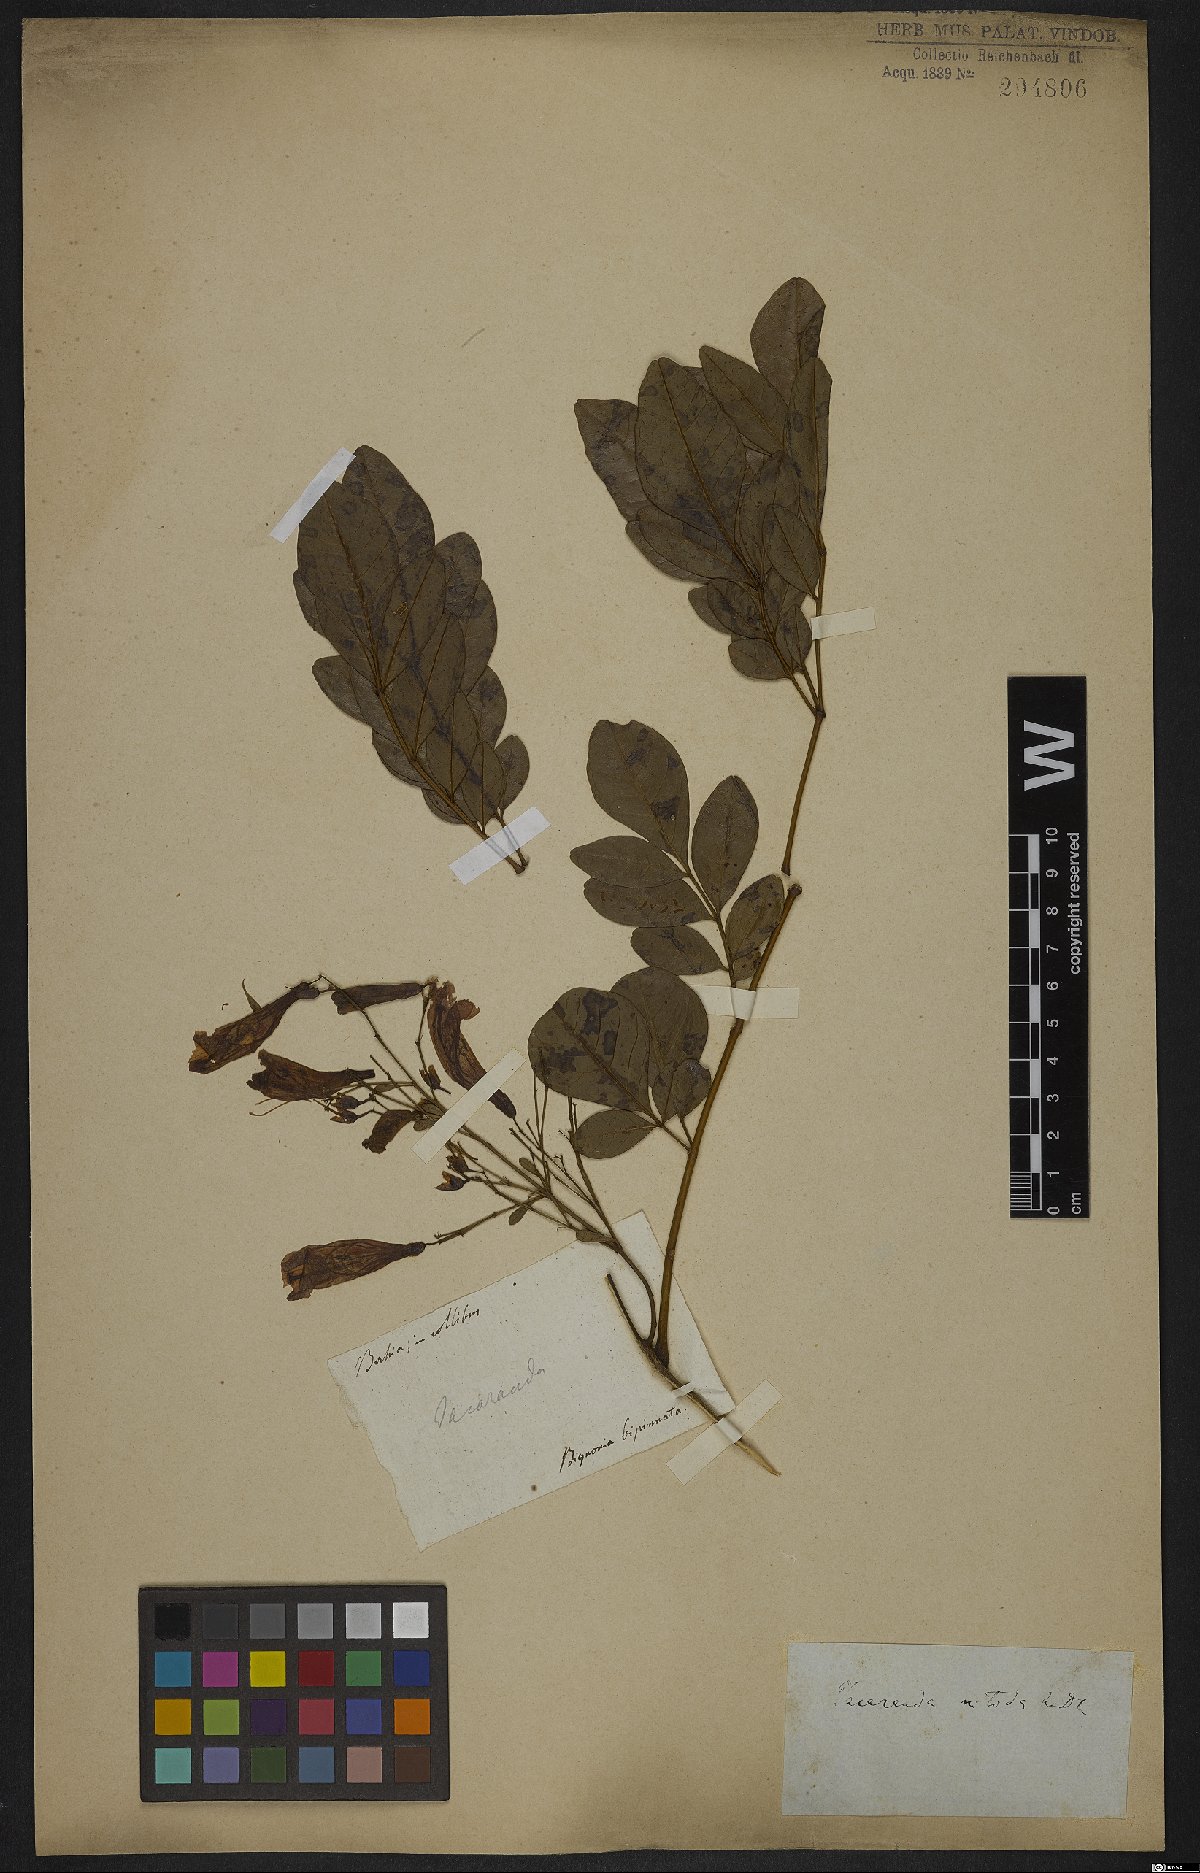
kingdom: Plantae
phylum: Tracheophyta
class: Magnoliopsida
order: Lamiales
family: Bignoniaceae
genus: Jacaranda
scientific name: Jacaranda obovata
